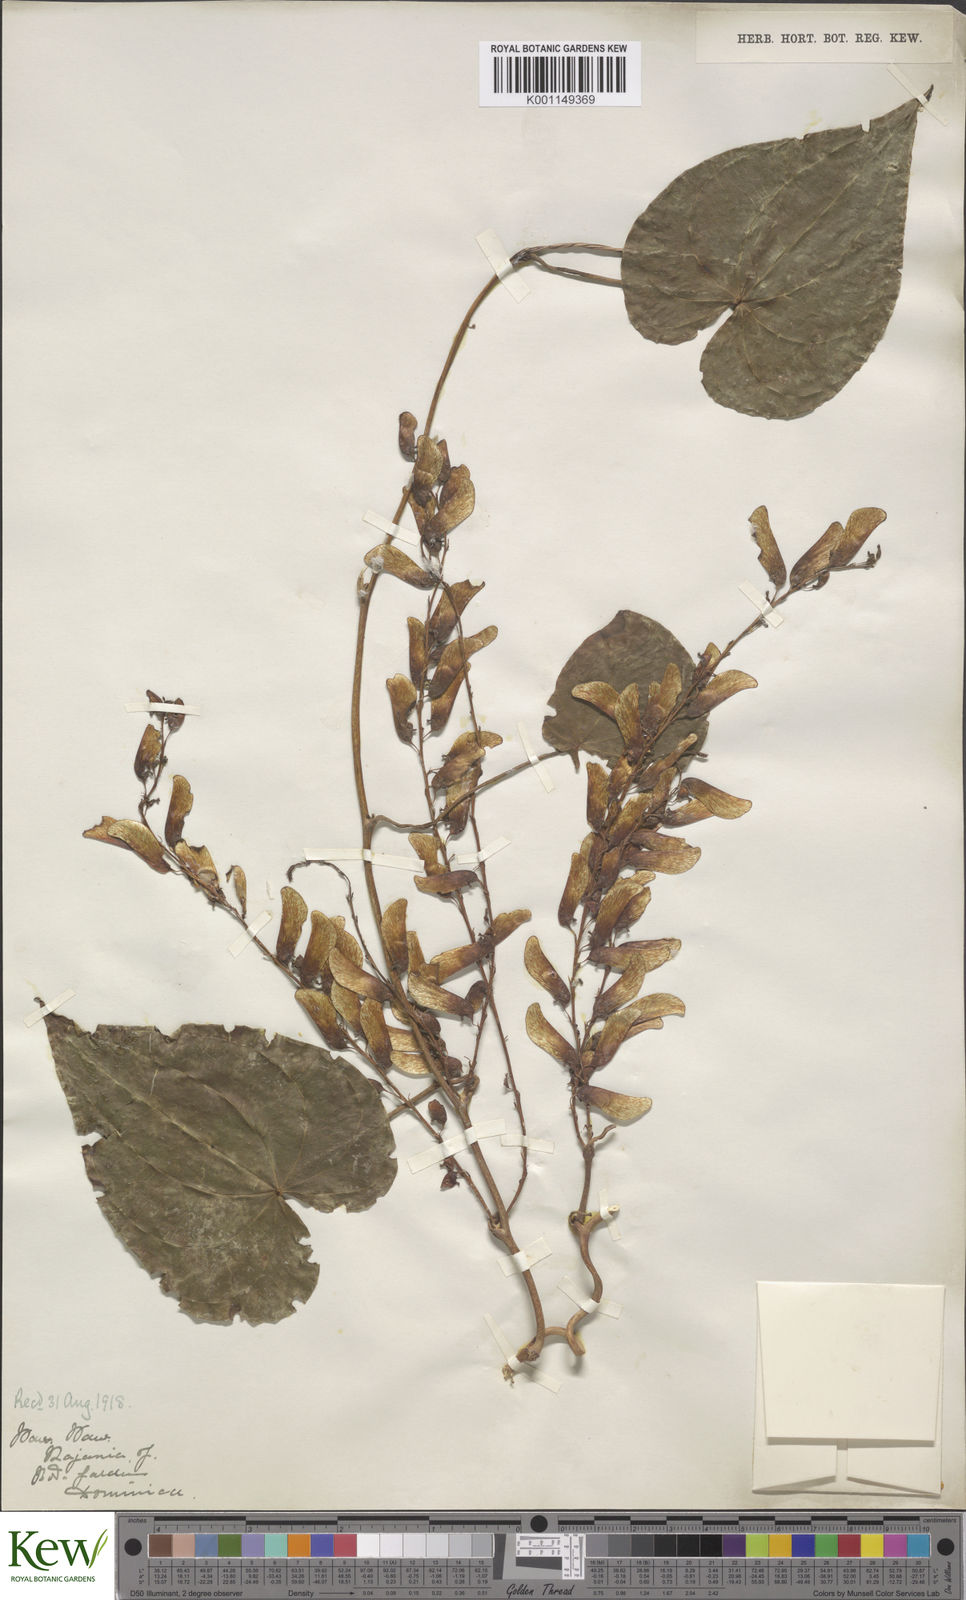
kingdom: Plantae
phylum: Tracheophyta
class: Liliopsida
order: Dioscoreales
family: Dioscoreaceae
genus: Dioscorea
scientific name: Dioscorea
